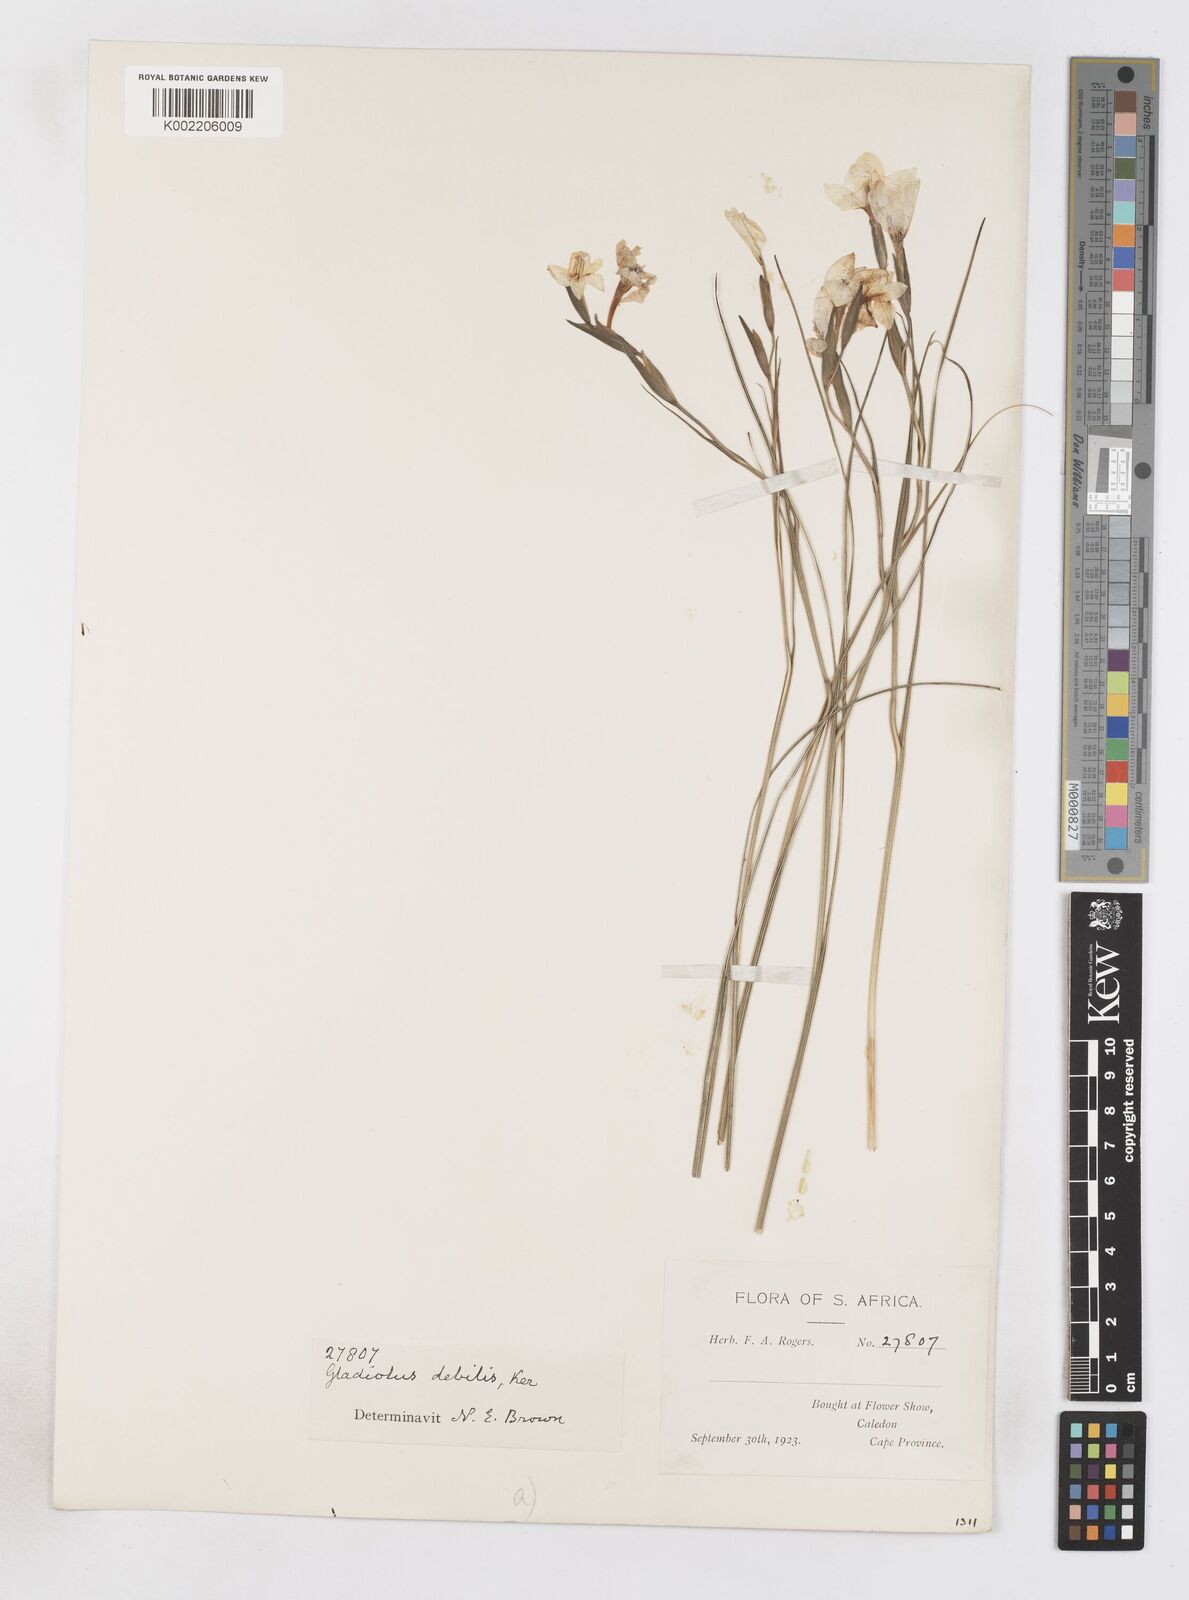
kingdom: Plantae
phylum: Tracheophyta
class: Liliopsida
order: Asparagales
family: Iridaceae
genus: Gladiolus
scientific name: Gladiolus debilis
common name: Painted-lady
